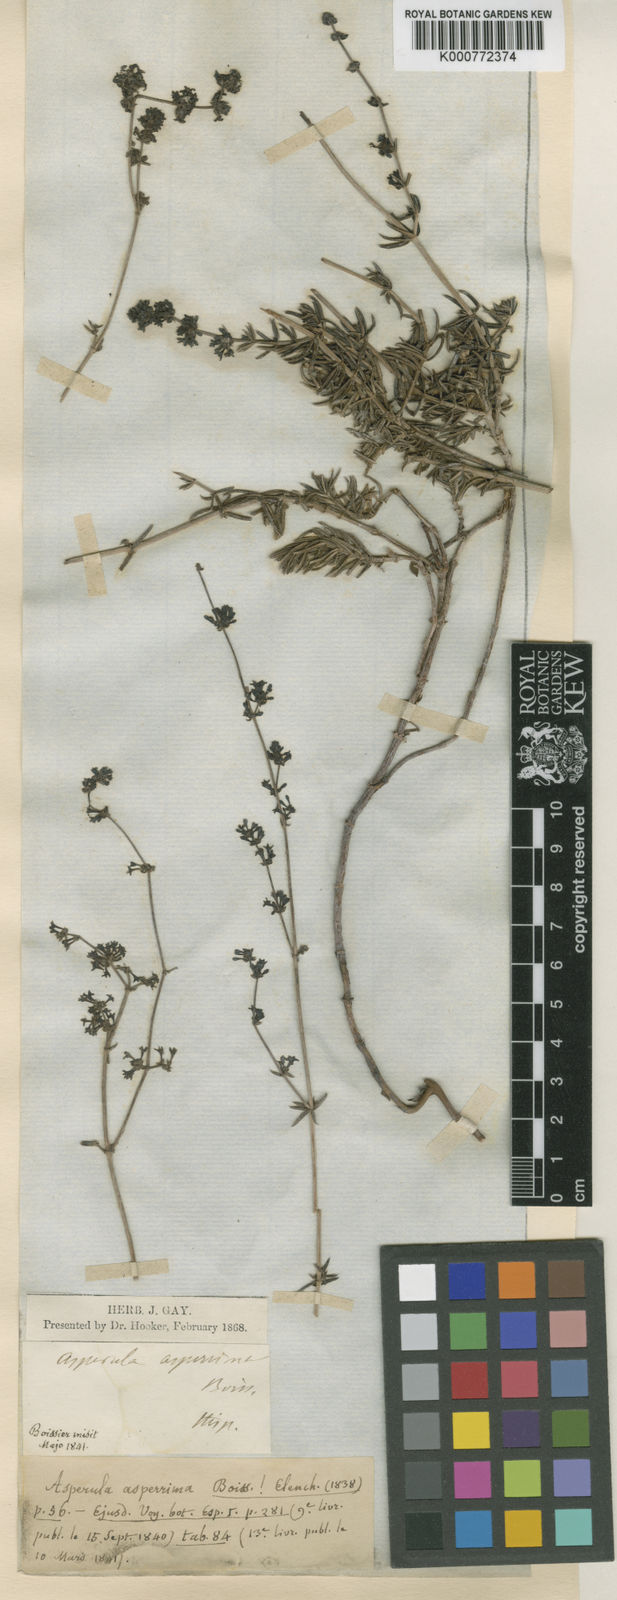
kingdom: Plantae
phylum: Tracheophyta
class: Magnoliopsida
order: Gentianales
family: Rubiaceae
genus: Galium
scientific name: Galium
